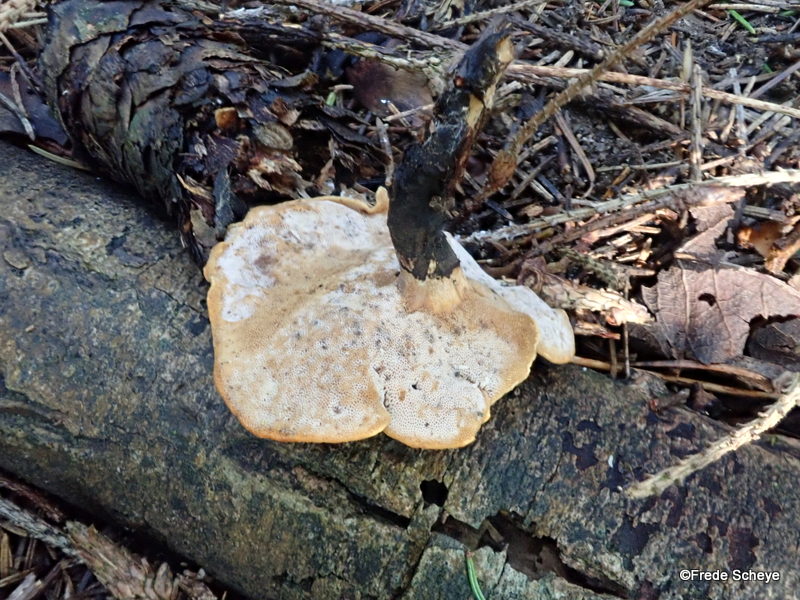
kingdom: Fungi
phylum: Basidiomycota
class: Agaricomycetes
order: Polyporales
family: Polyporaceae
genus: Cerioporus
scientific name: Cerioporus varius
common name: foranderlig stilkporesvamp
